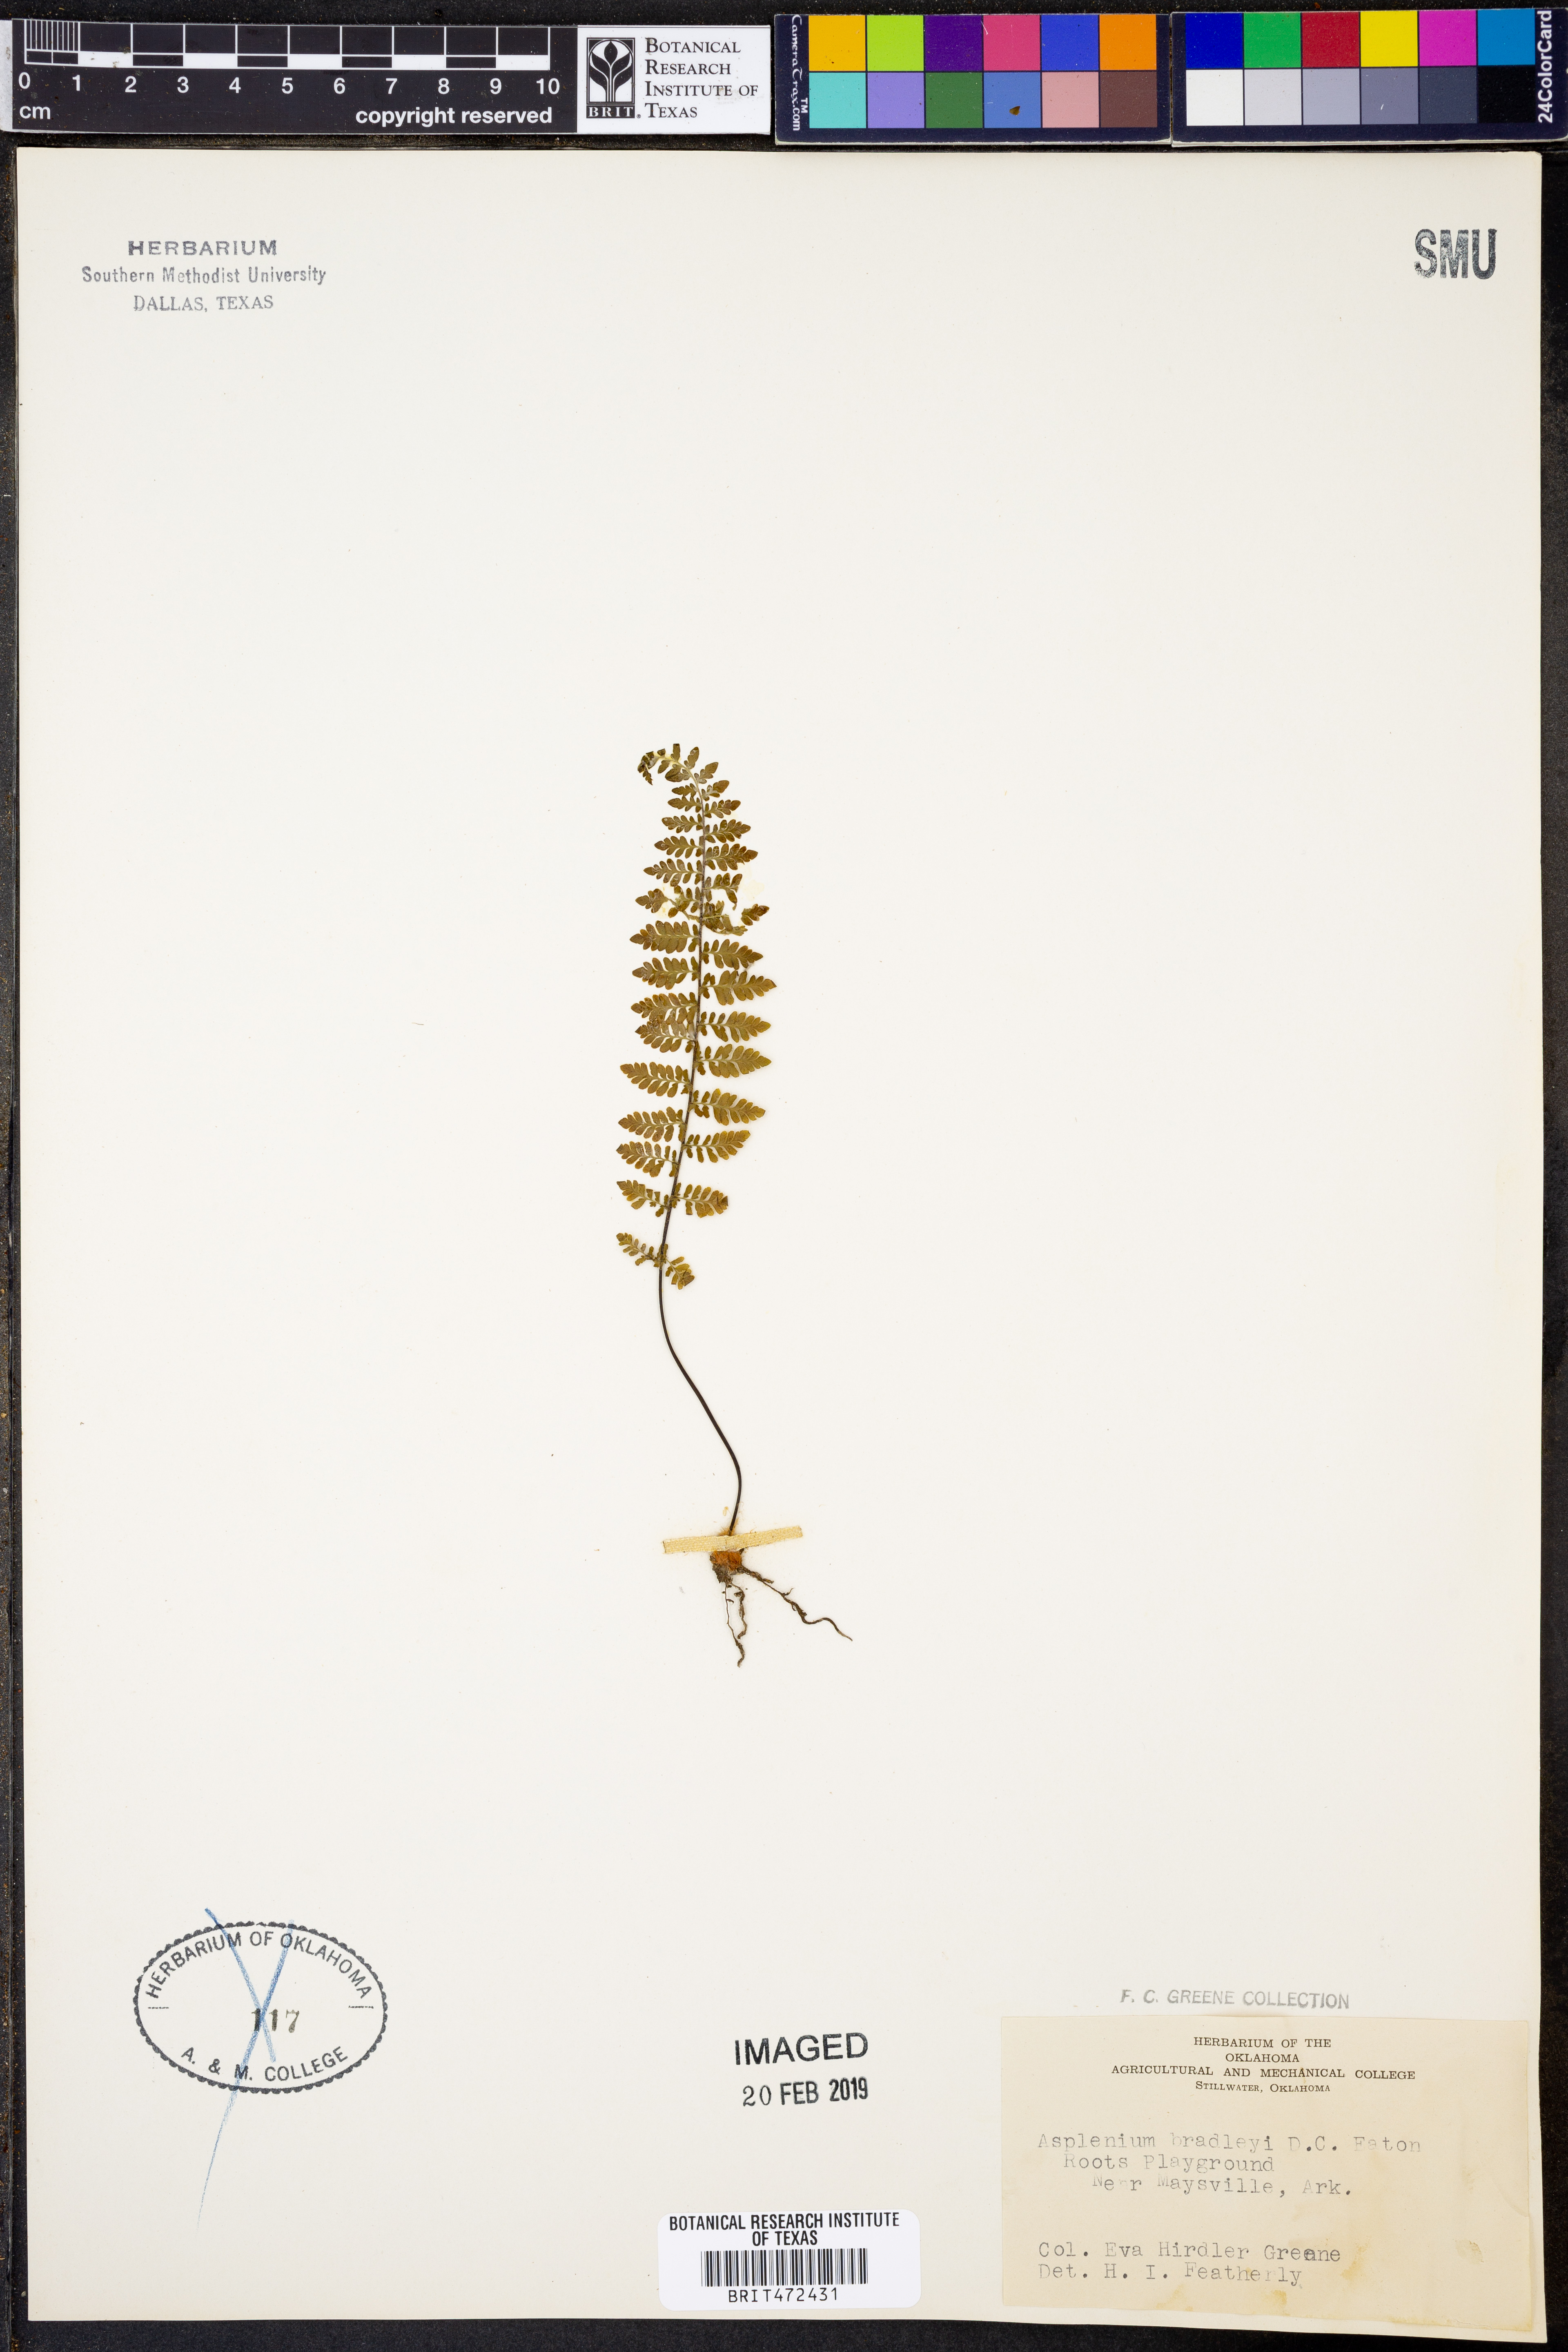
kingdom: Plantae
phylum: Tracheophyta
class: Polypodiopsida
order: Polypodiales
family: Aspleniaceae
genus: Asplenium
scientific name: Asplenium bradleyi
